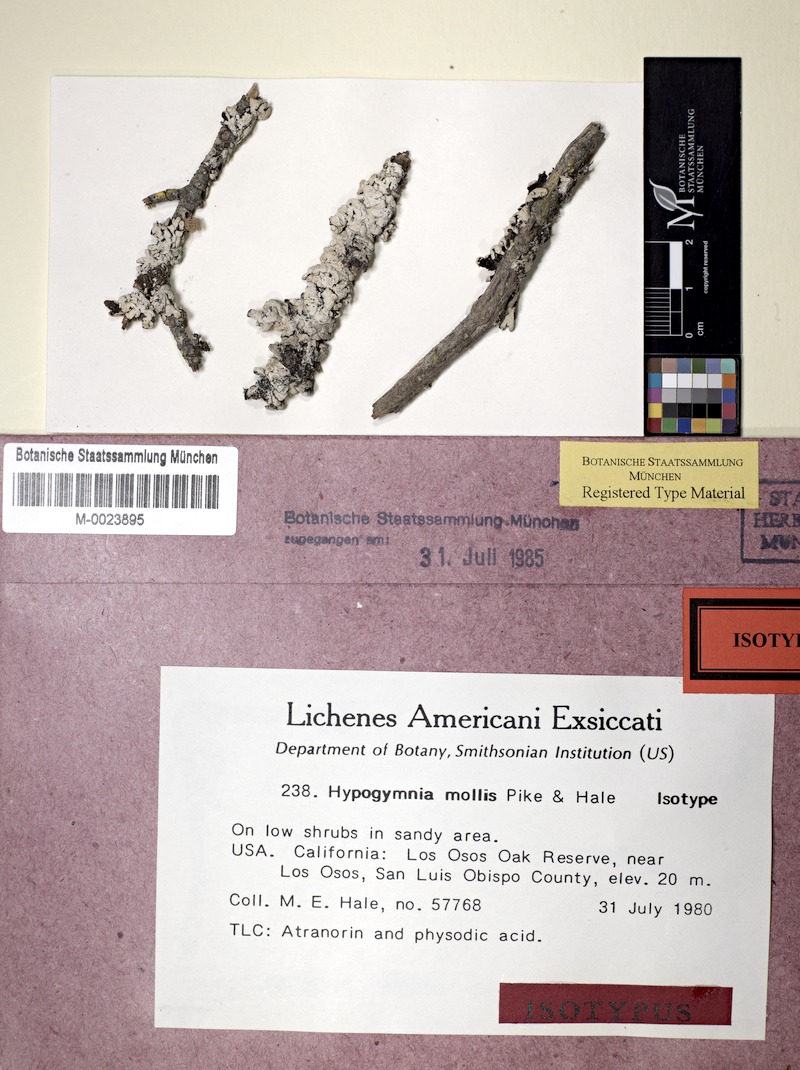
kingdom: Fungi
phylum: Ascomycota
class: Lecanoromycetes
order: Lecanorales
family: Parmeliaceae
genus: Hypogymnia
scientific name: Hypogymnia mollis
